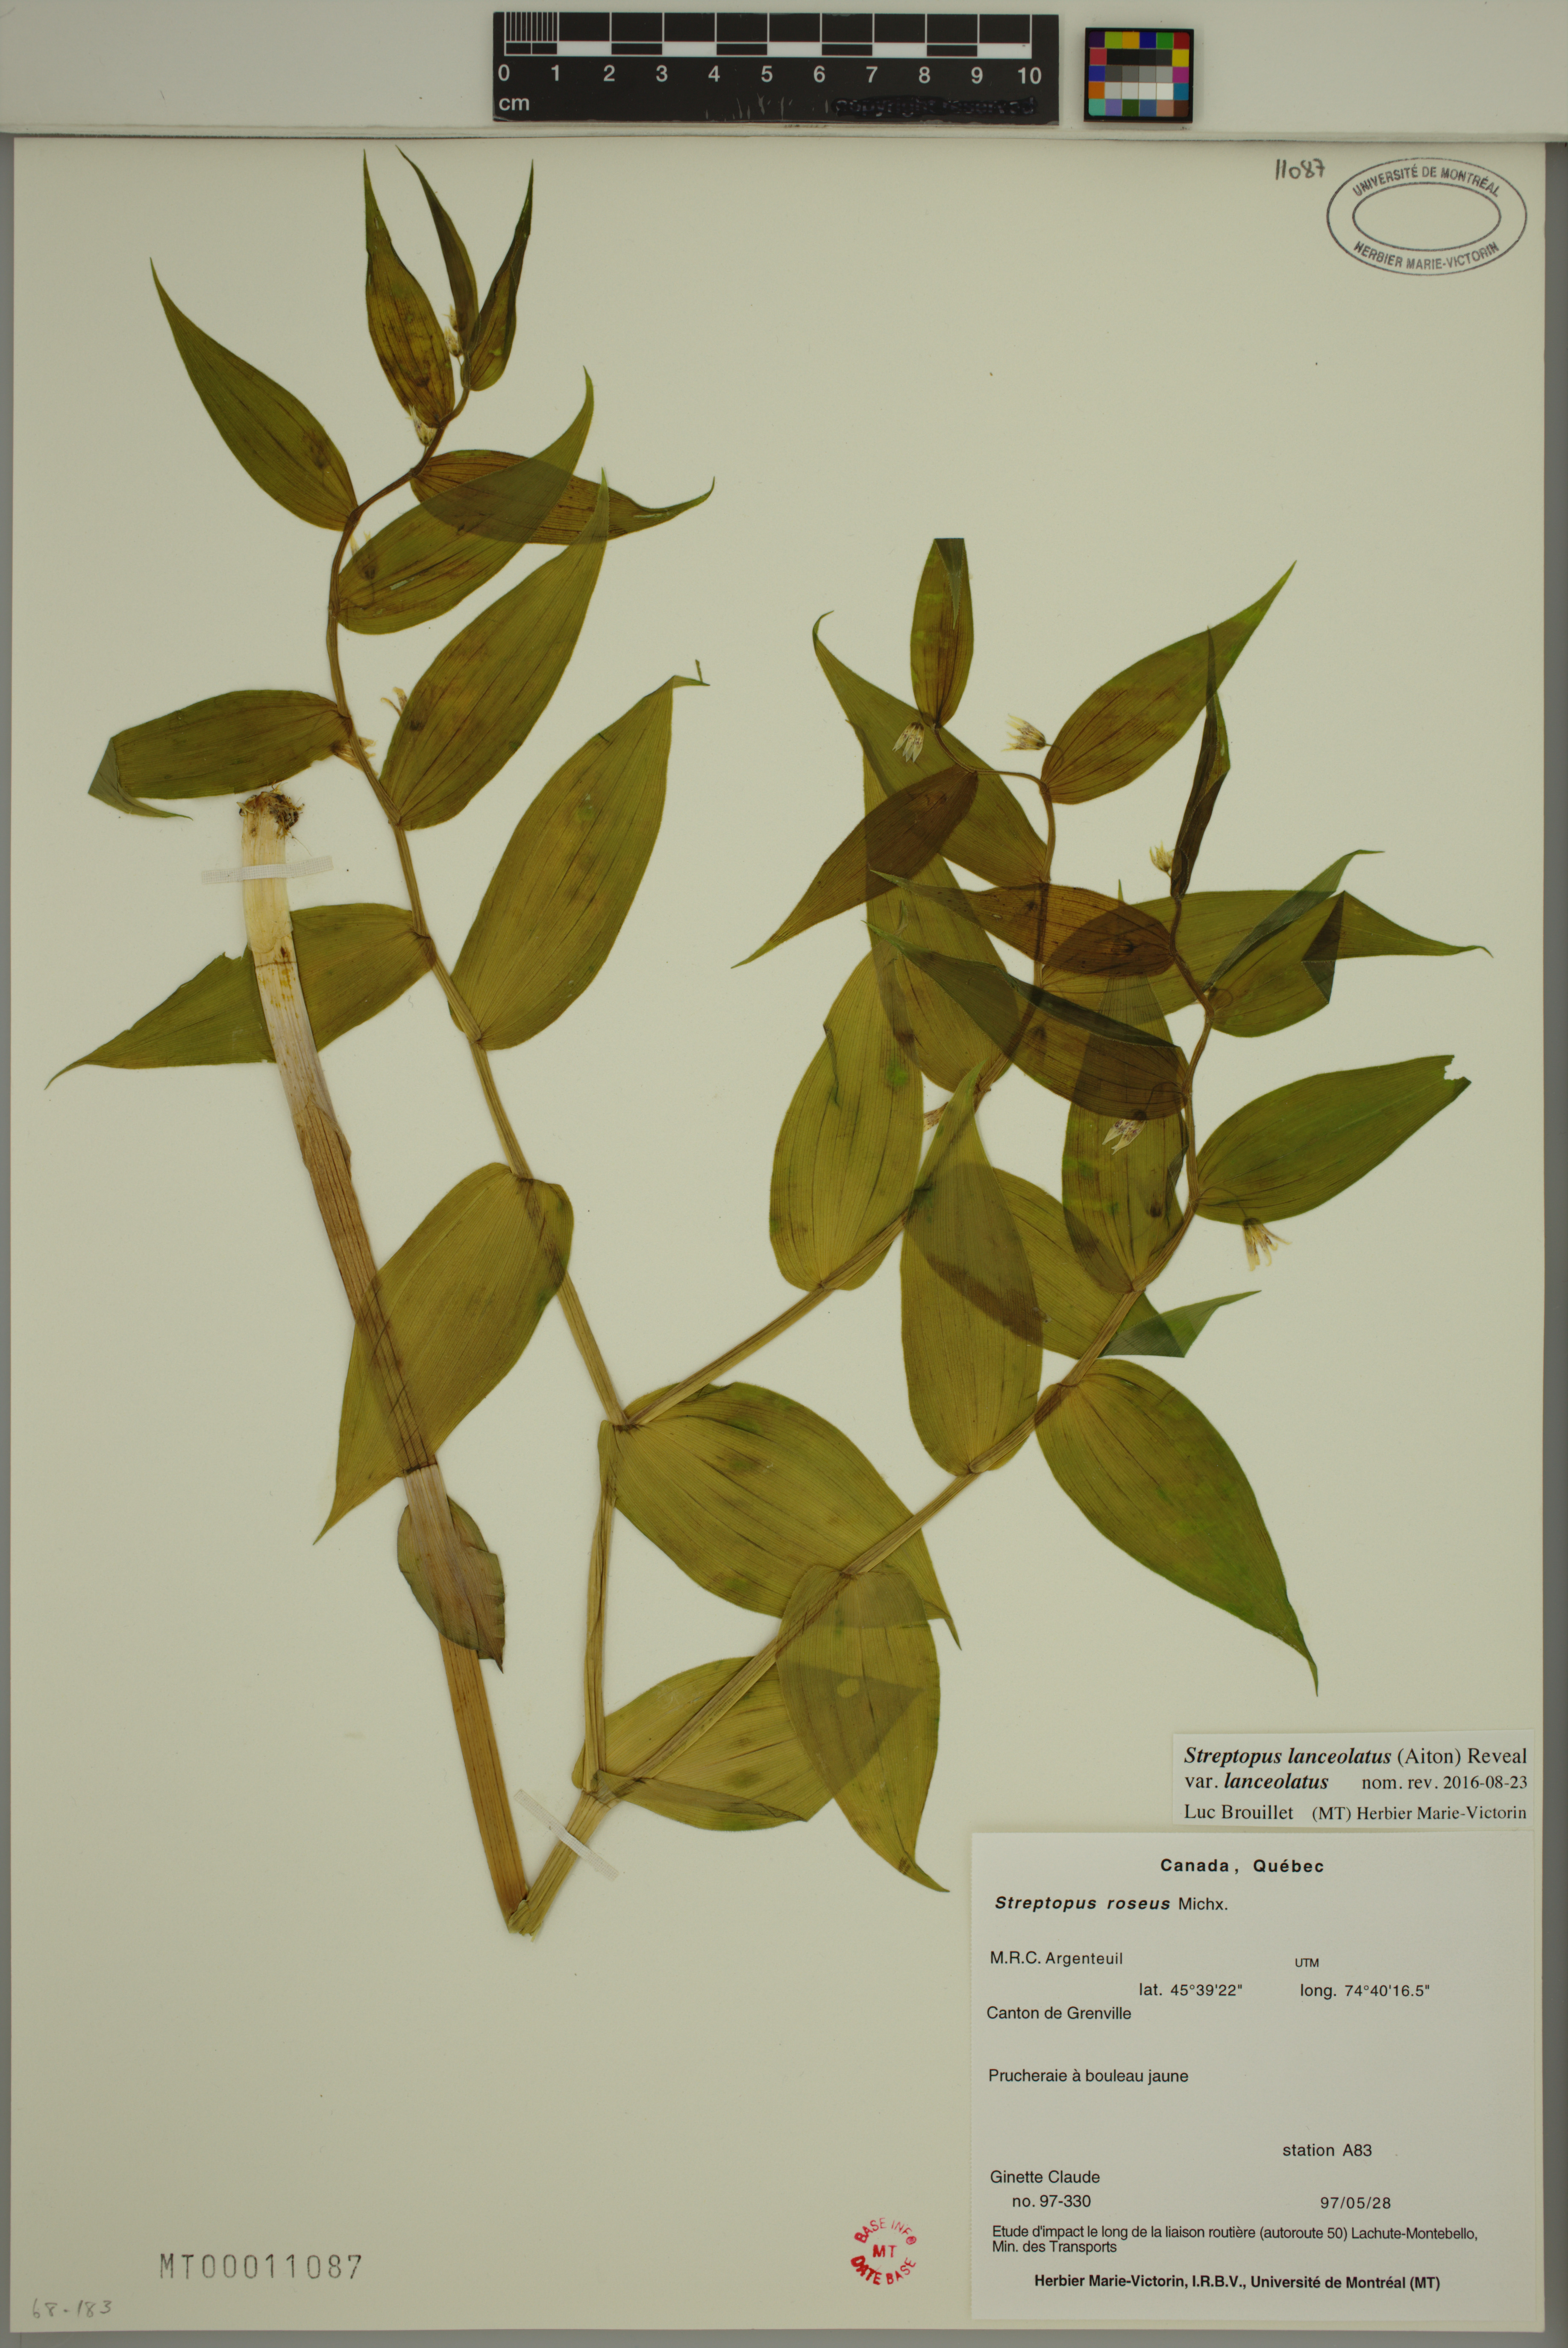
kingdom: Plantae
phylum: Tracheophyta
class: Liliopsida
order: Liliales
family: Liliaceae
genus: Streptopus
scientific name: Streptopus lanceolatus
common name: Rose mandarin
